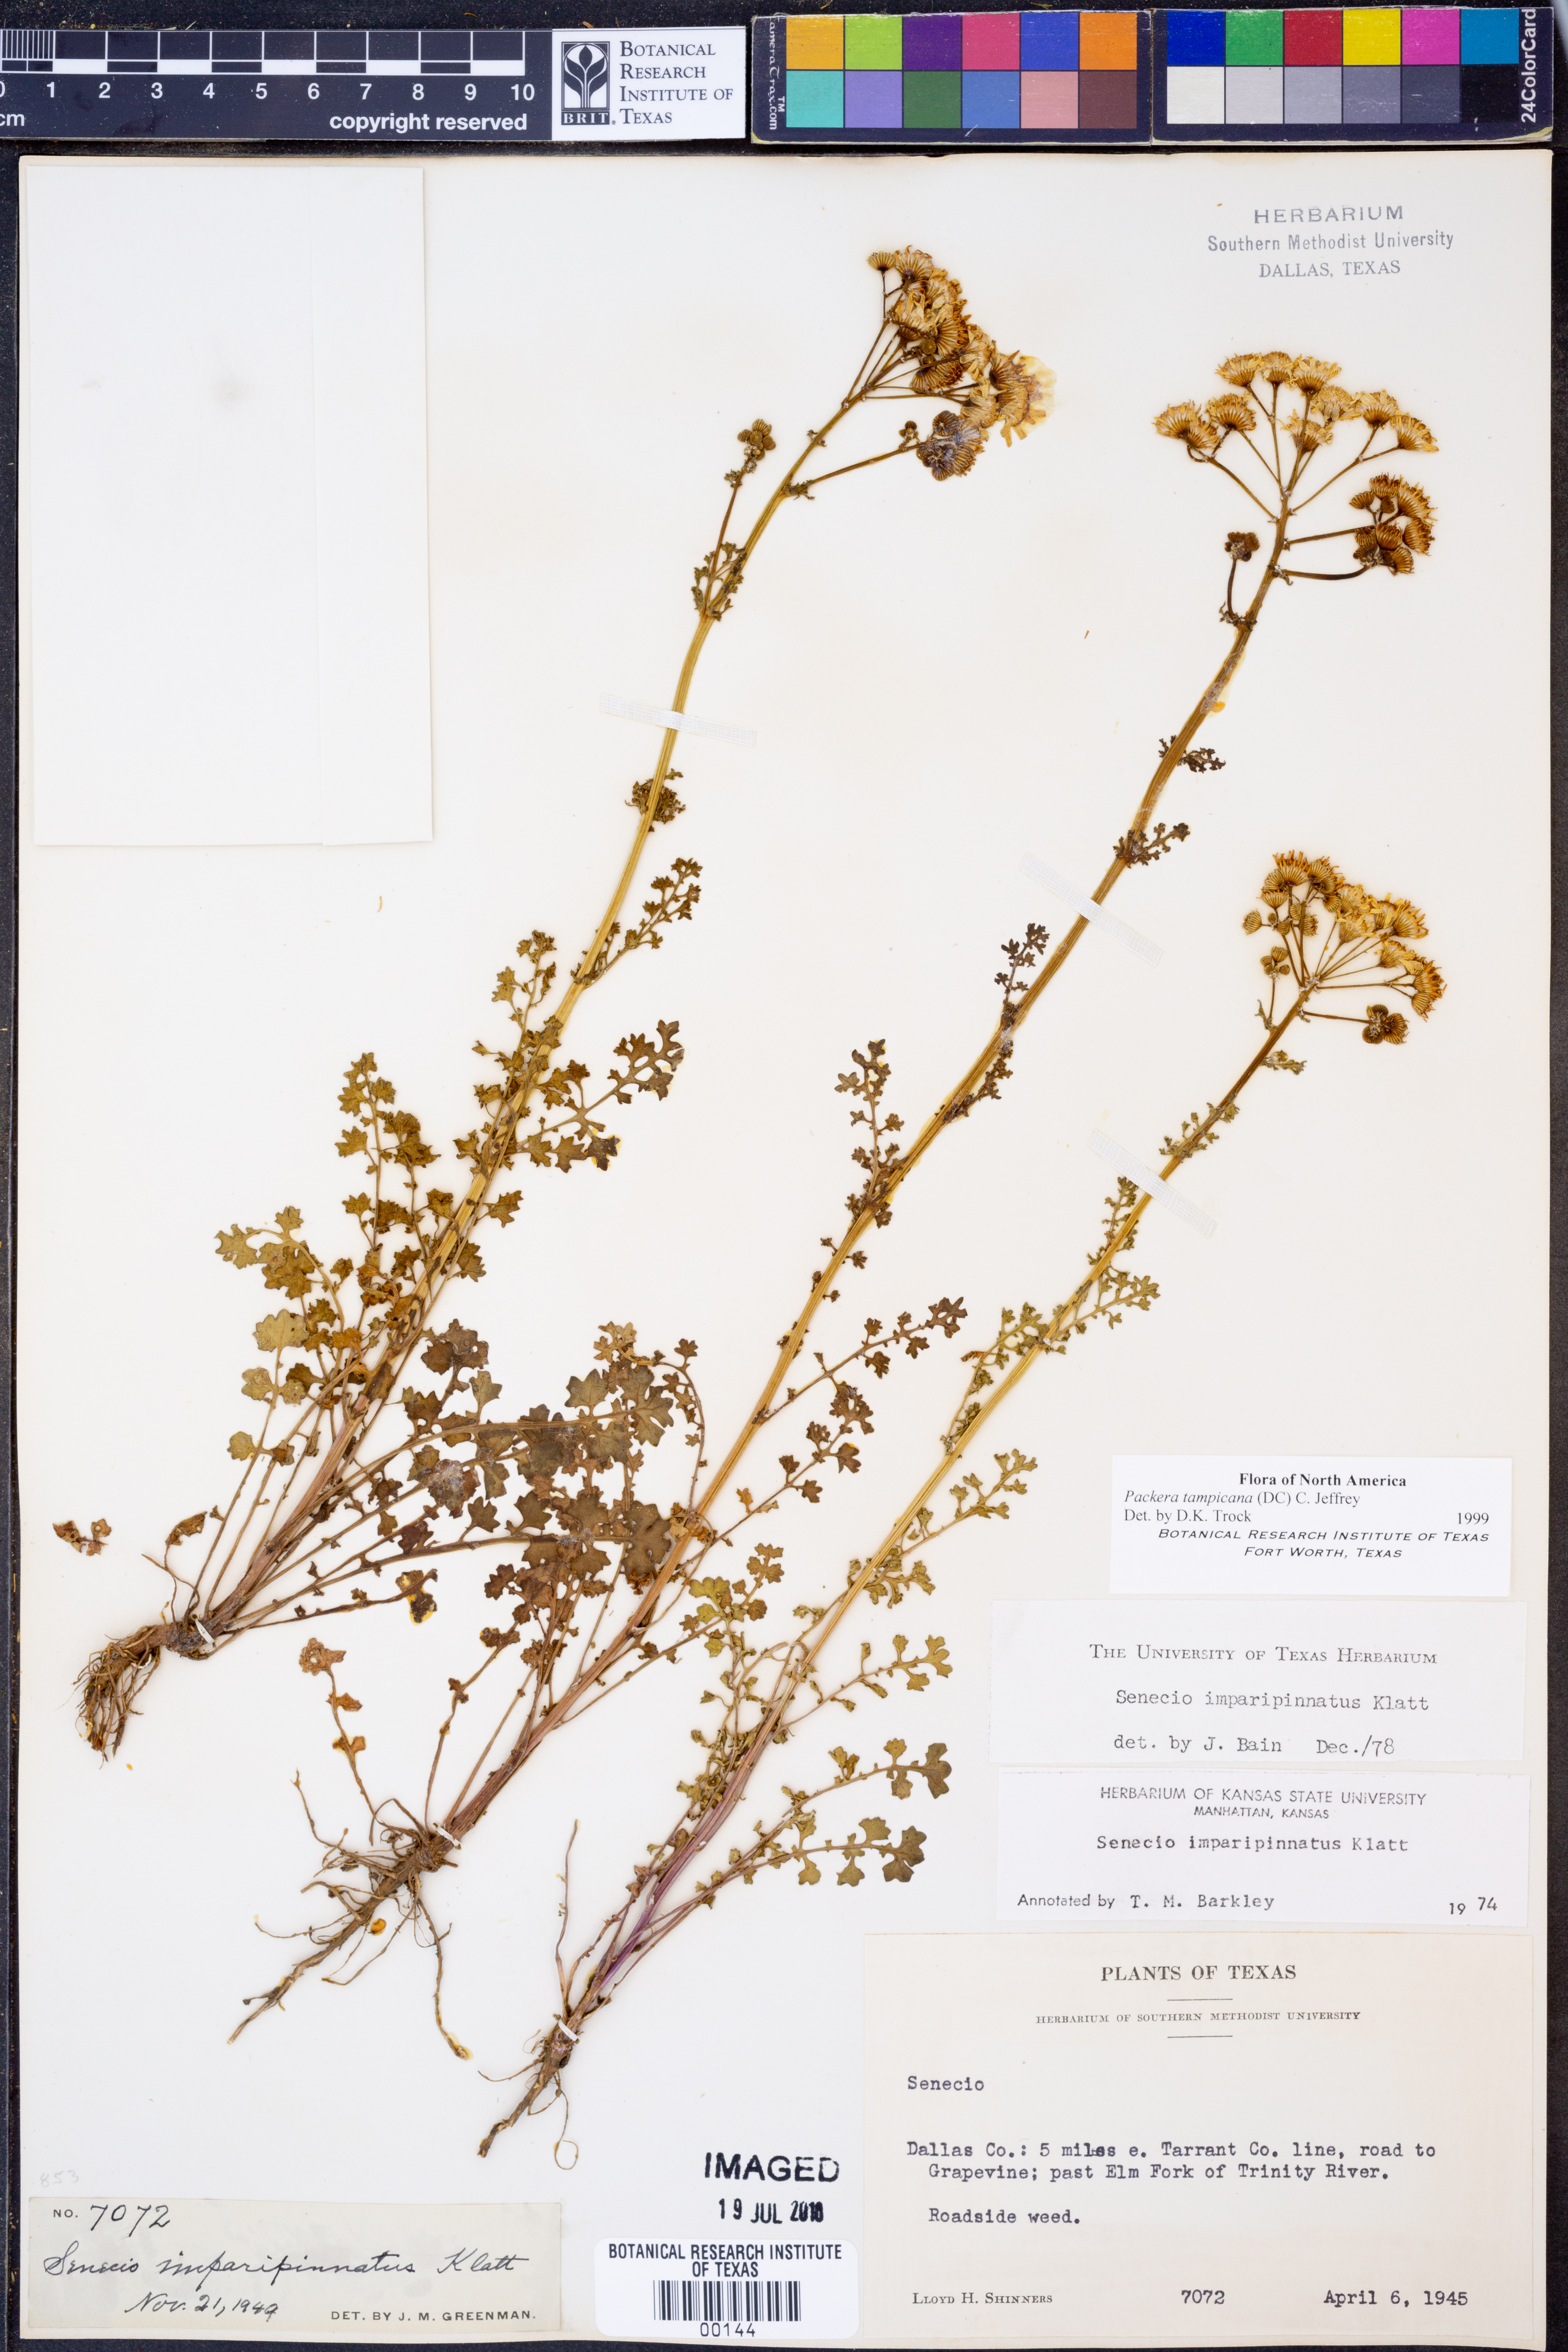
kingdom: Plantae
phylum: Tracheophyta
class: Magnoliopsida
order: Asterales
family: Asteraceae
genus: Packera
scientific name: Packera tampicana
